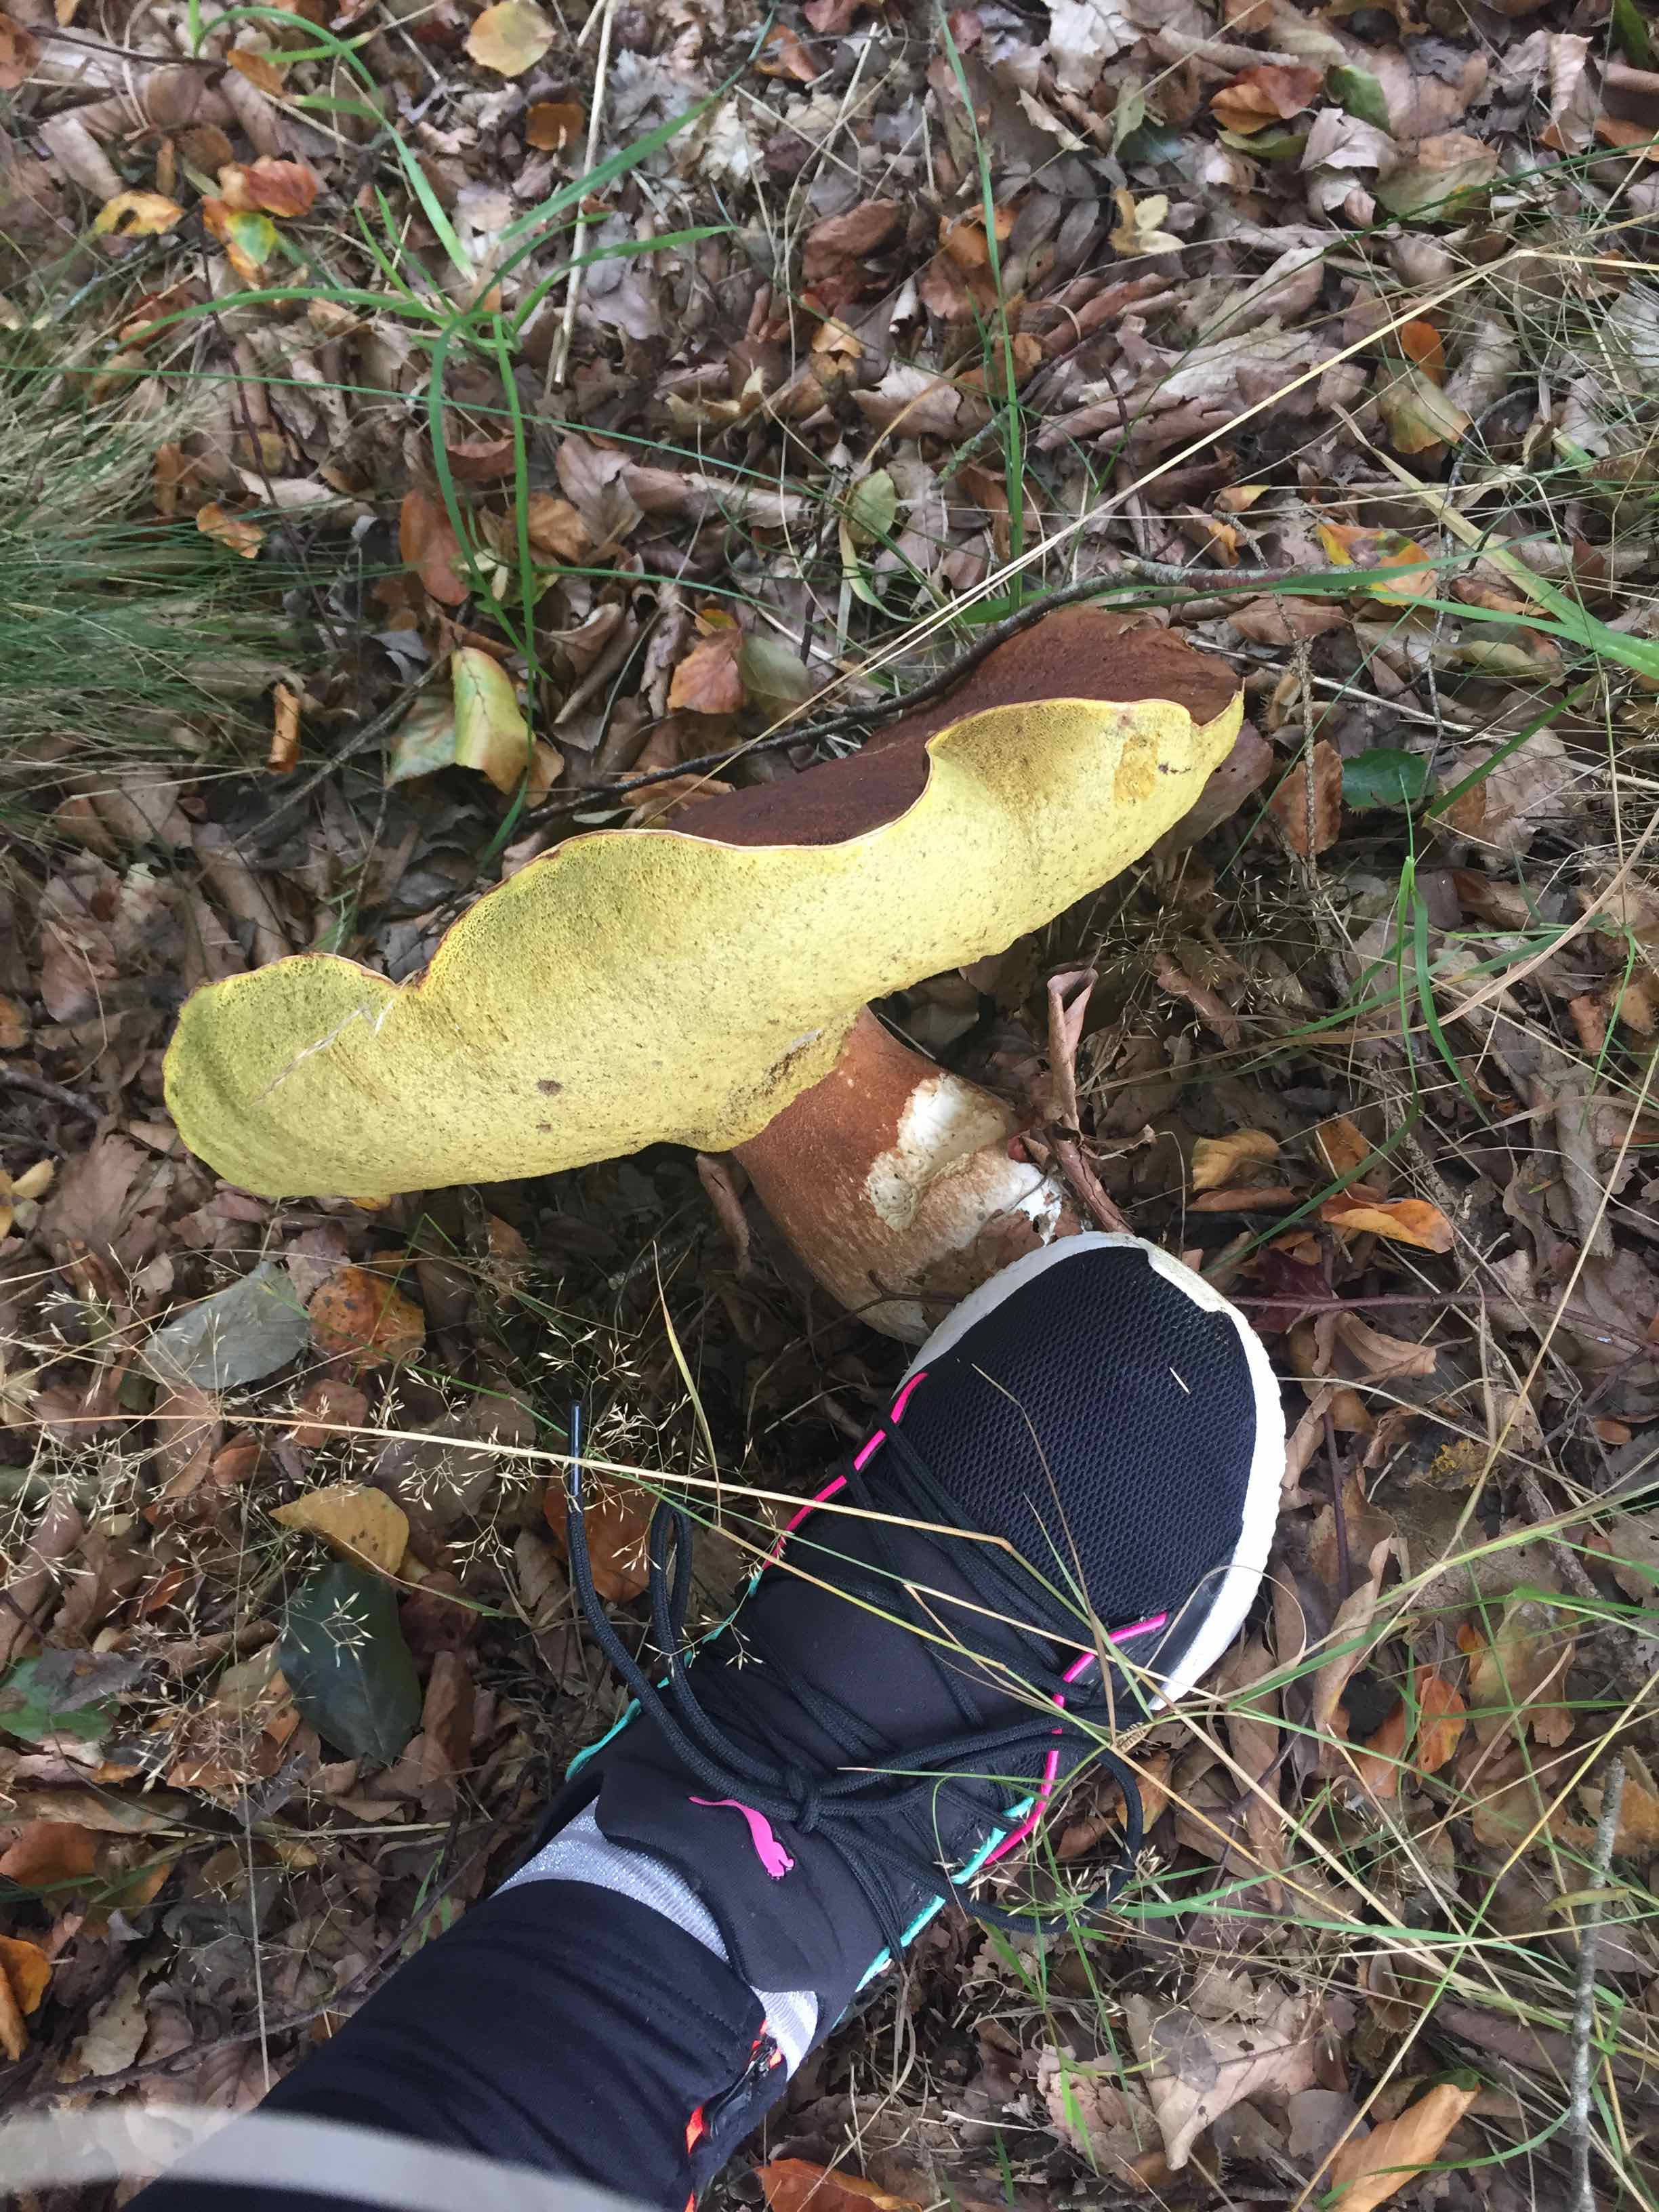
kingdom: Fungi
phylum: Basidiomycota
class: Agaricomycetes
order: Boletales
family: Boletaceae
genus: Boletus
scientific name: Boletus edulis
